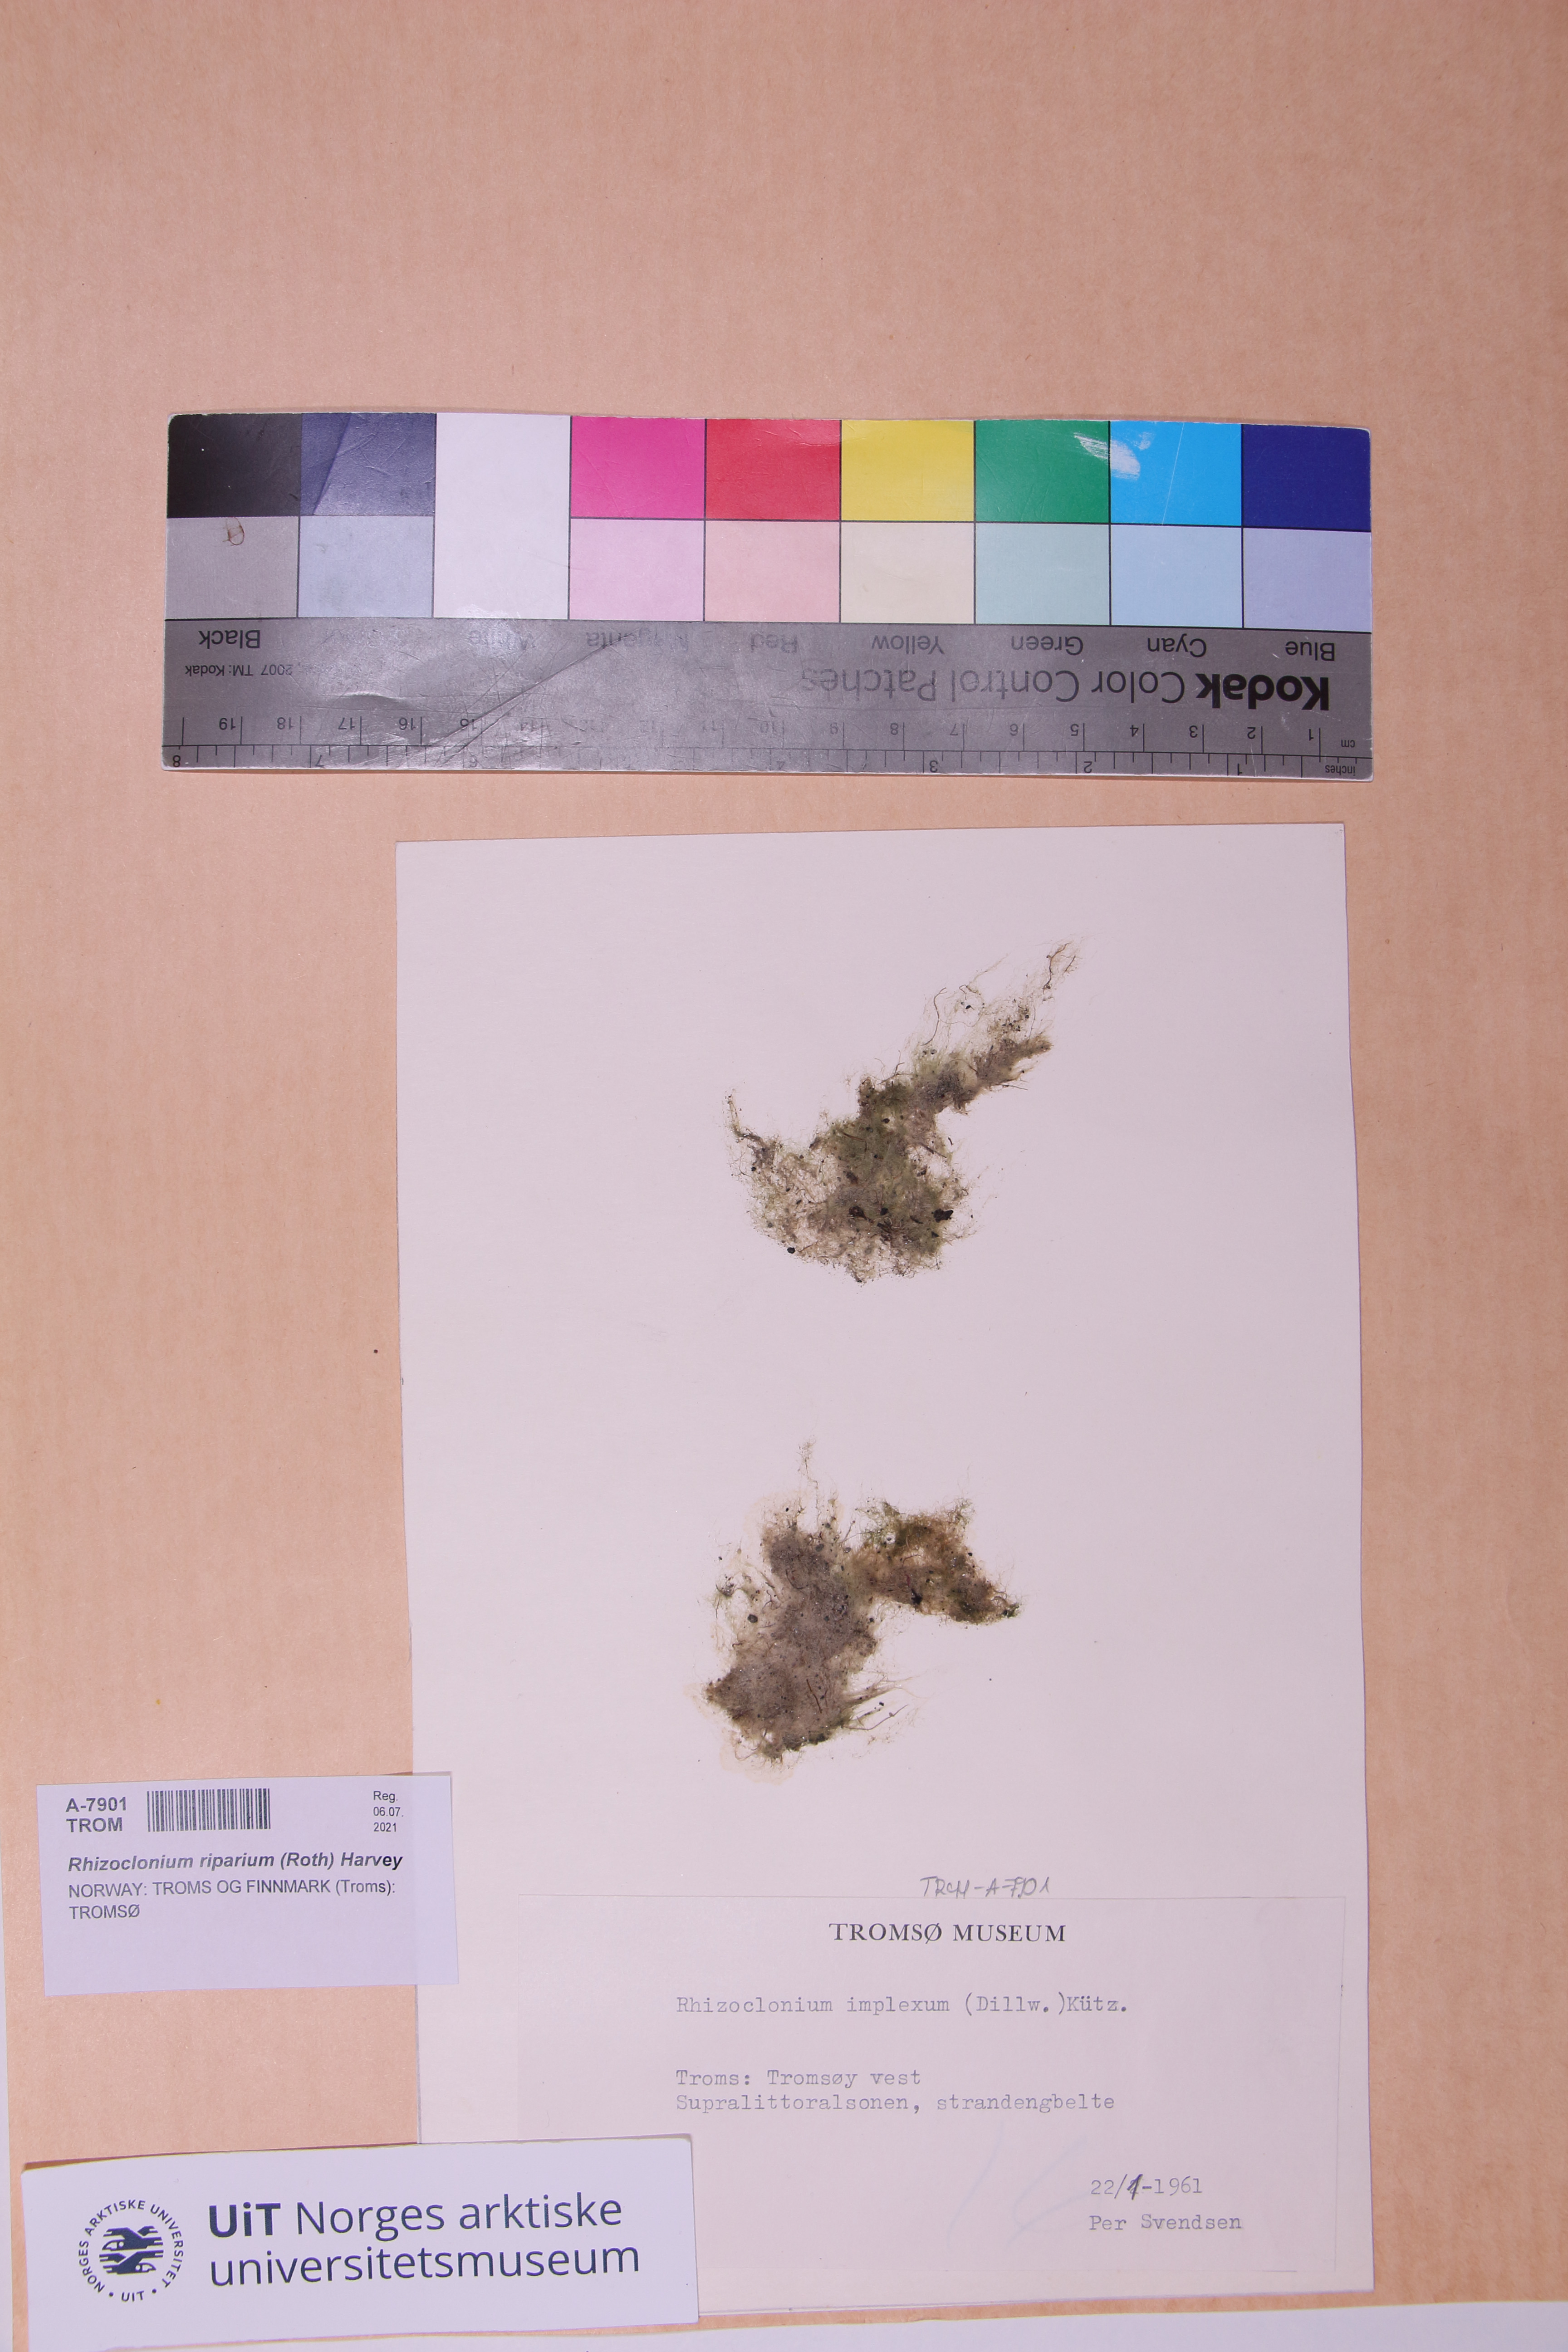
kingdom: Plantae
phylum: Chlorophyta
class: Ulvophyceae
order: Cladophorales
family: Cladophoraceae
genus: Rhizoclonium
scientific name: Rhizoclonium riparium
